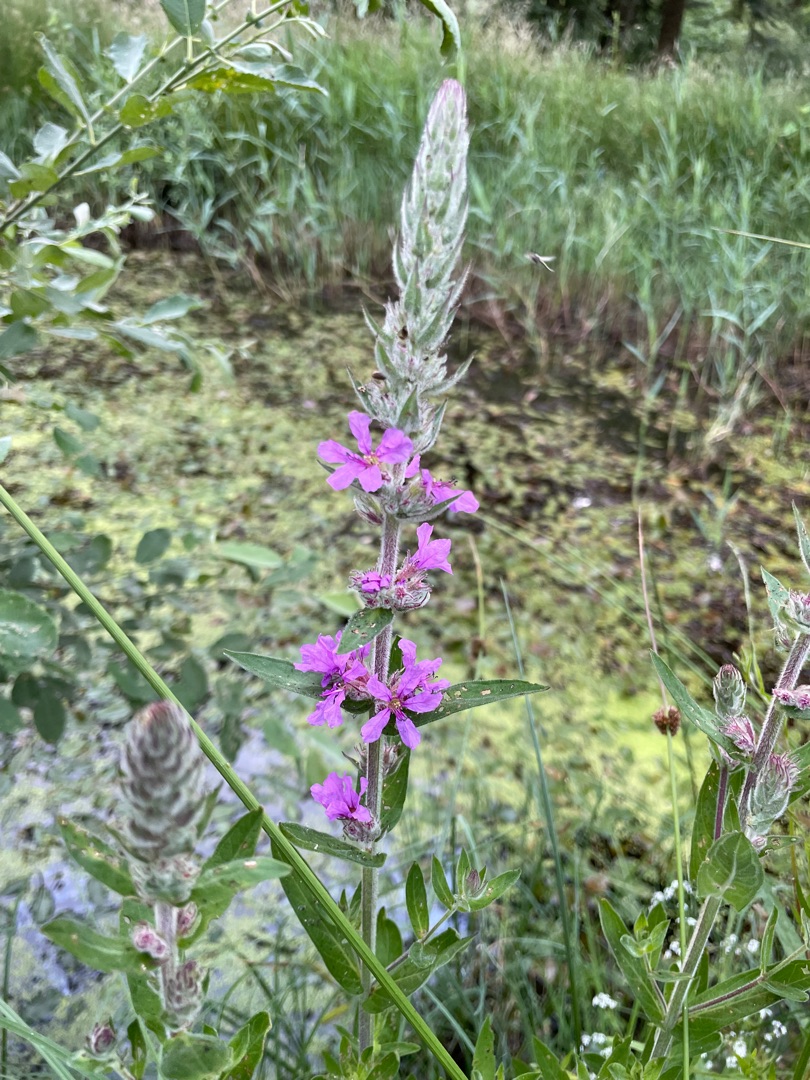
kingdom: Plantae
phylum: Tracheophyta
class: Magnoliopsida
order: Myrtales
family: Lythraceae
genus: Lythrum
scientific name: Lythrum salicaria
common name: Kattehale
